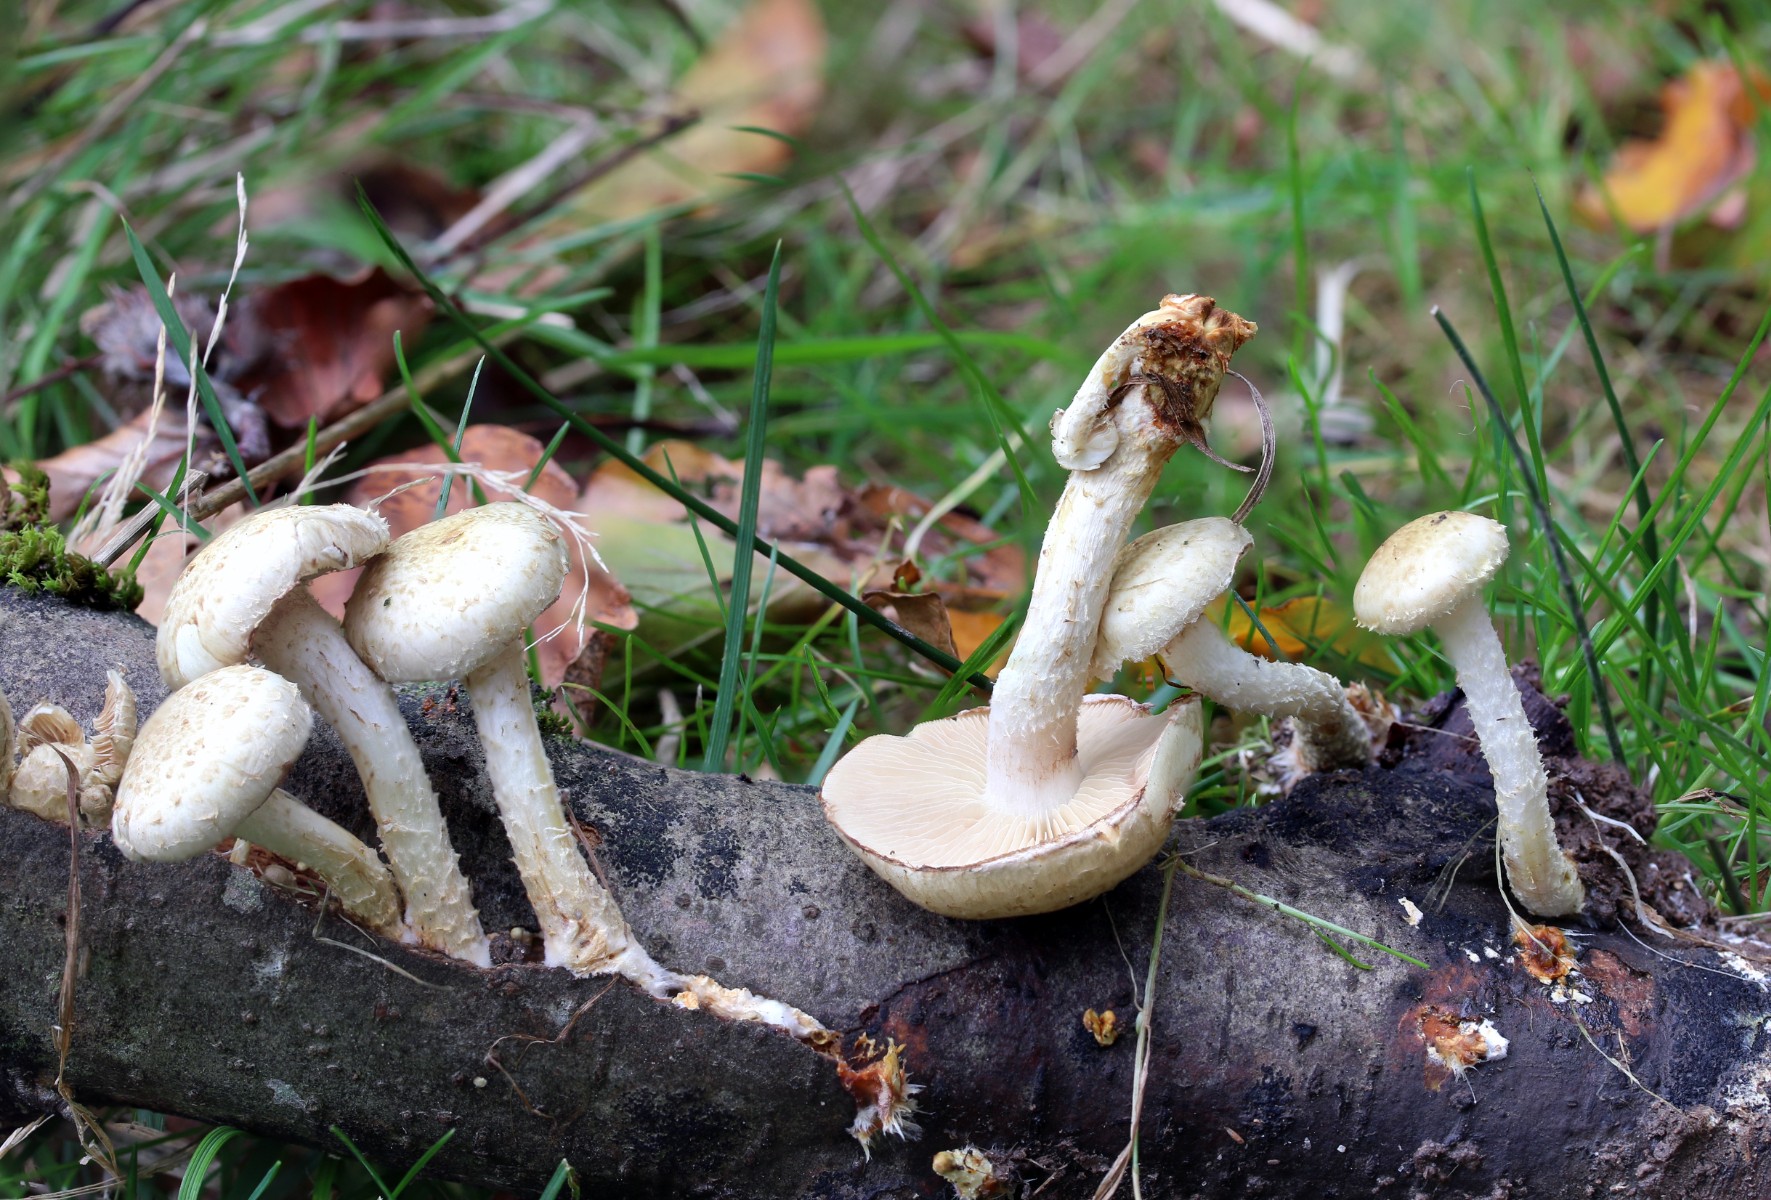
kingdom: Fungi
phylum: Basidiomycota
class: Agaricomycetes
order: Agaricales
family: Strophariaceae
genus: Pholiota
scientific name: Pholiota gummosa
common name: grøngul skælhat
